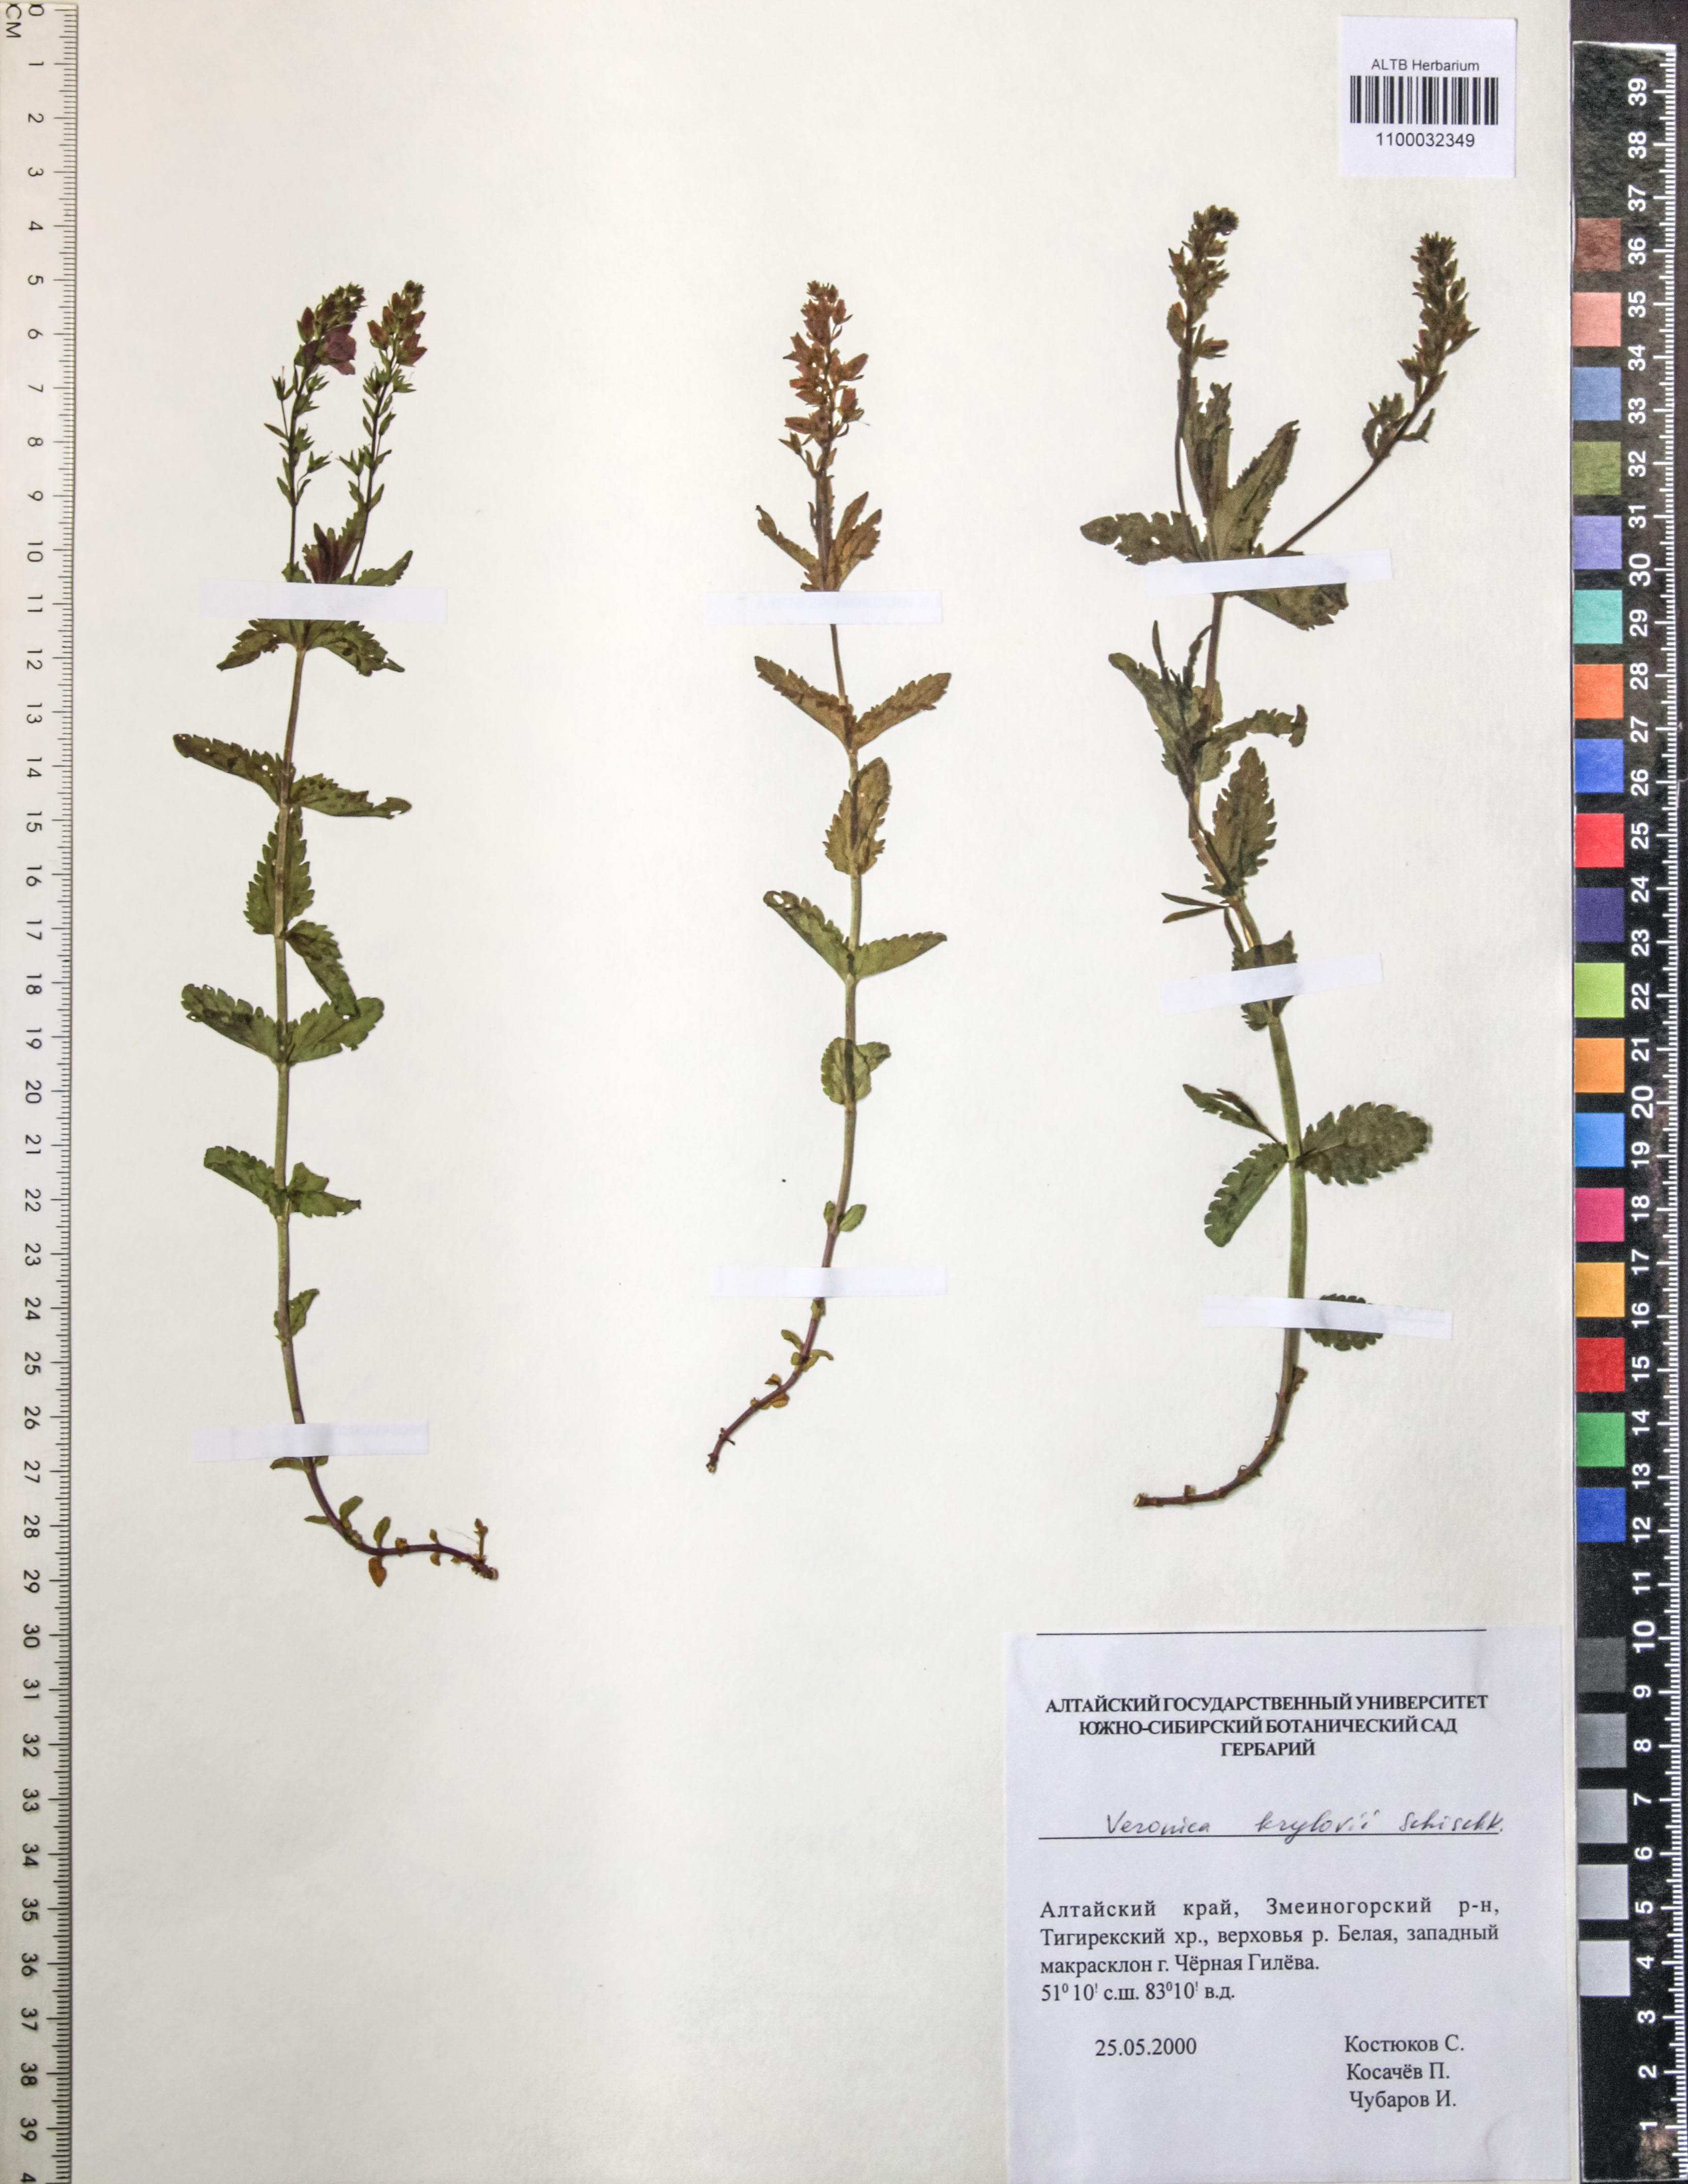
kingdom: Plantae
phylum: Tracheophyta
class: Magnoliopsida
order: Lamiales
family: Plantaginaceae
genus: Veronica
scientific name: Veronica krylovii
